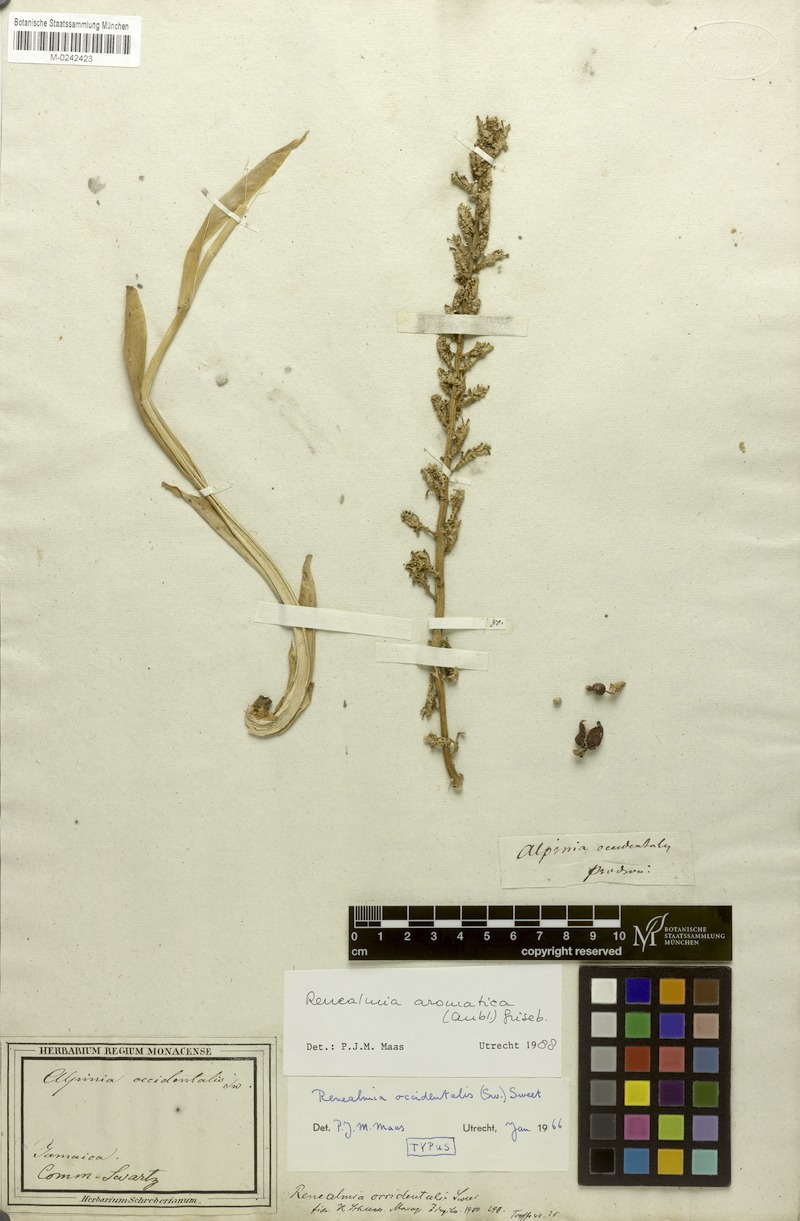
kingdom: Plantae
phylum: Tracheophyta
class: Liliopsida
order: Zingiberales
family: Zingiberaceae
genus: Renealmia
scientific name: Renealmia aromatica
